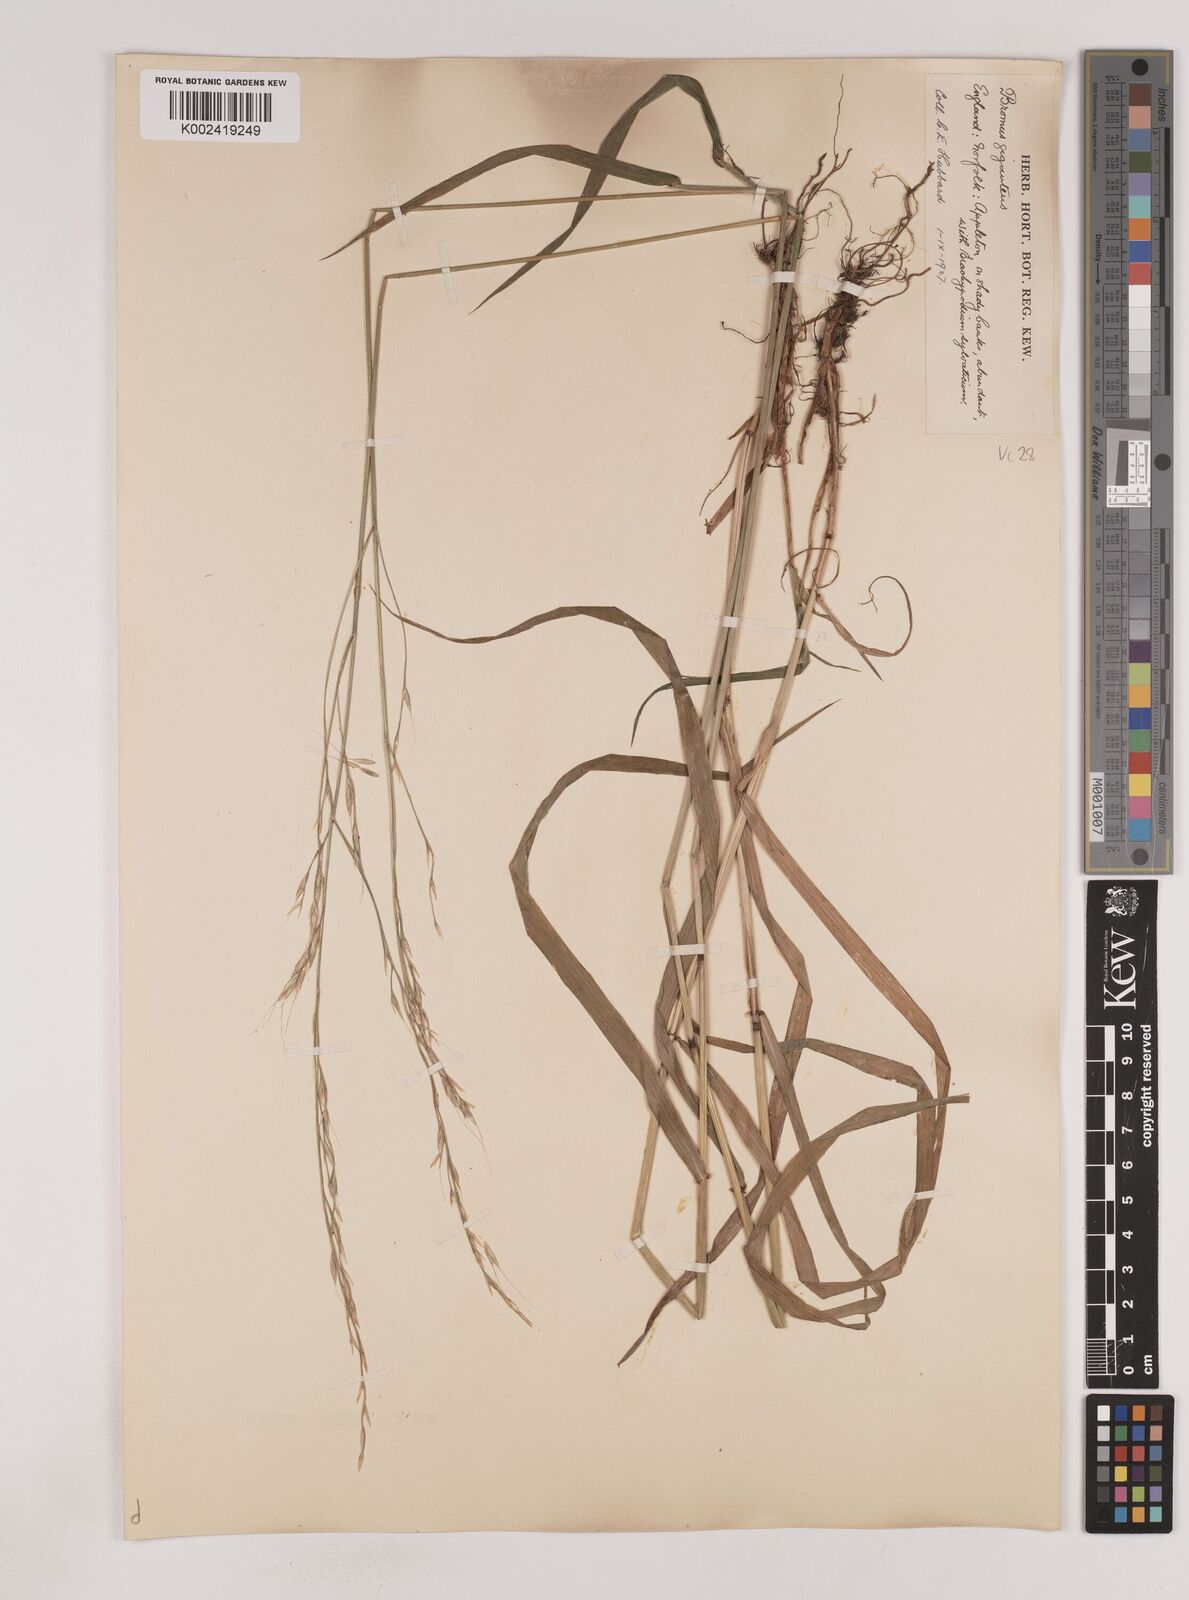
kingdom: Plantae
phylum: Tracheophyta
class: Liliopsida
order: Poales
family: Poaceae
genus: Lolium
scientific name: Lolium giganteum
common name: Giant fescue
